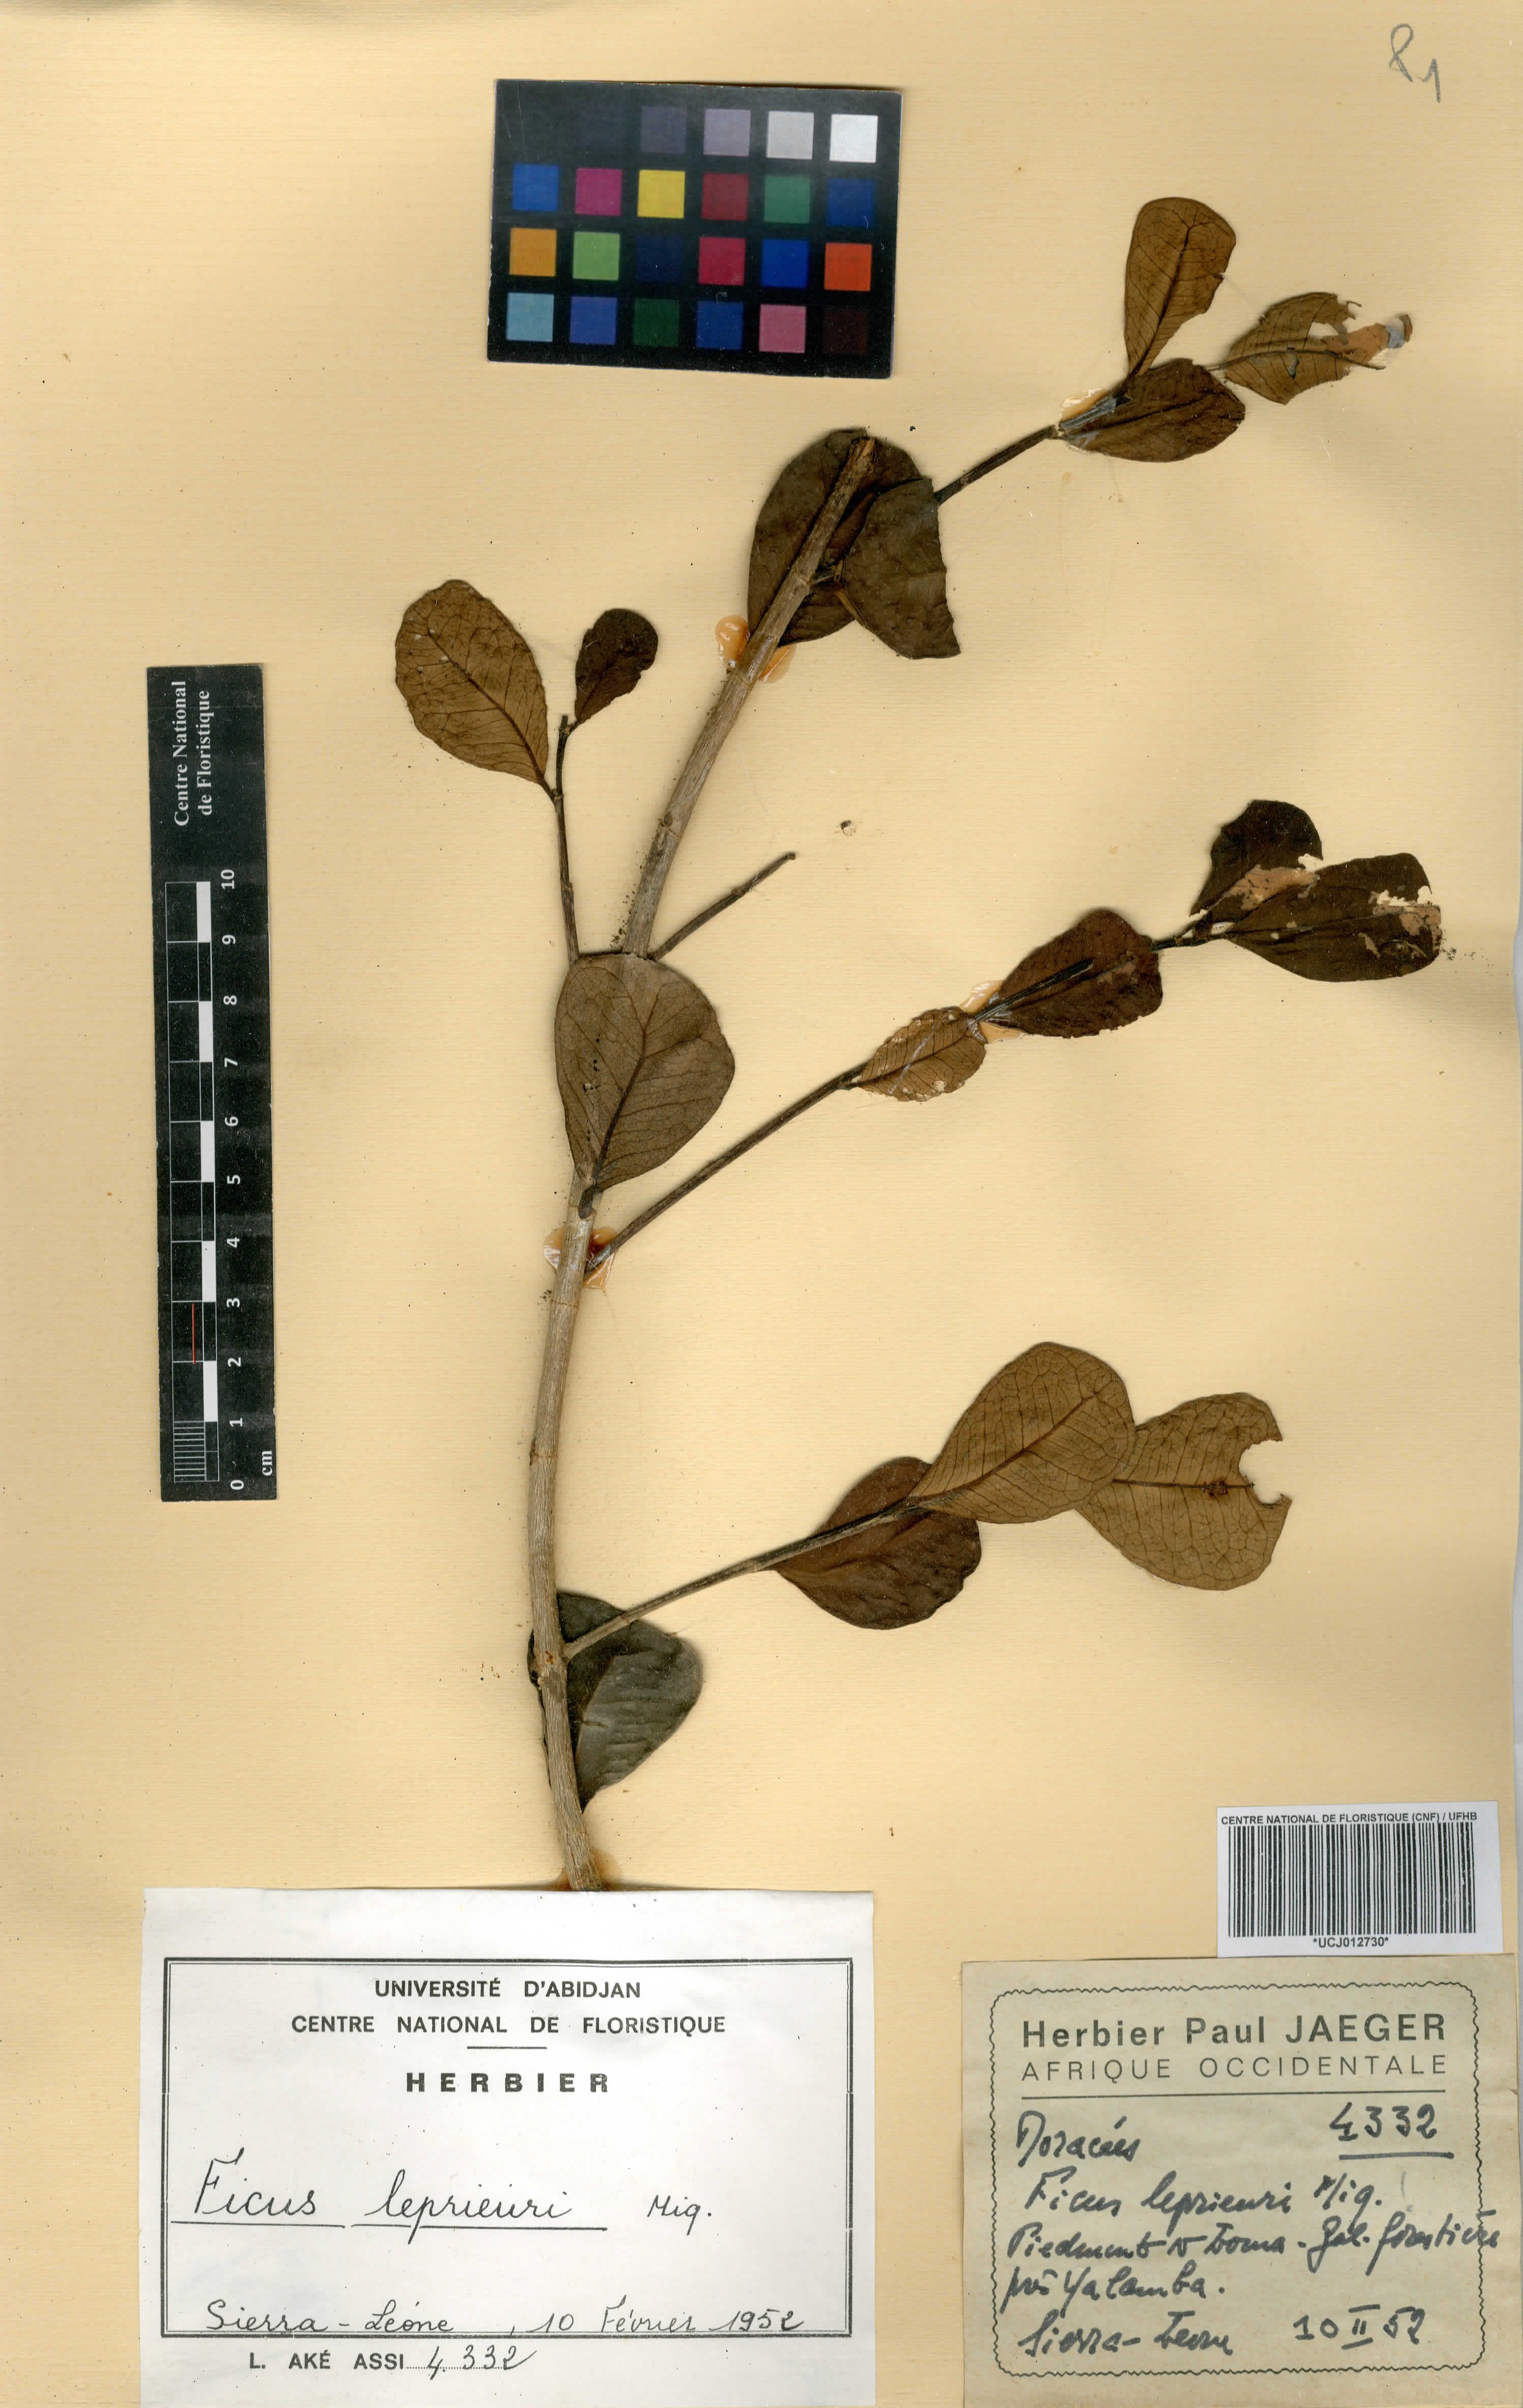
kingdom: Plantae
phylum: Tracheophyta
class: Magnoliopsida
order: Rosales
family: Moraceae
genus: Ficus
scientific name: Ficus natalensis
